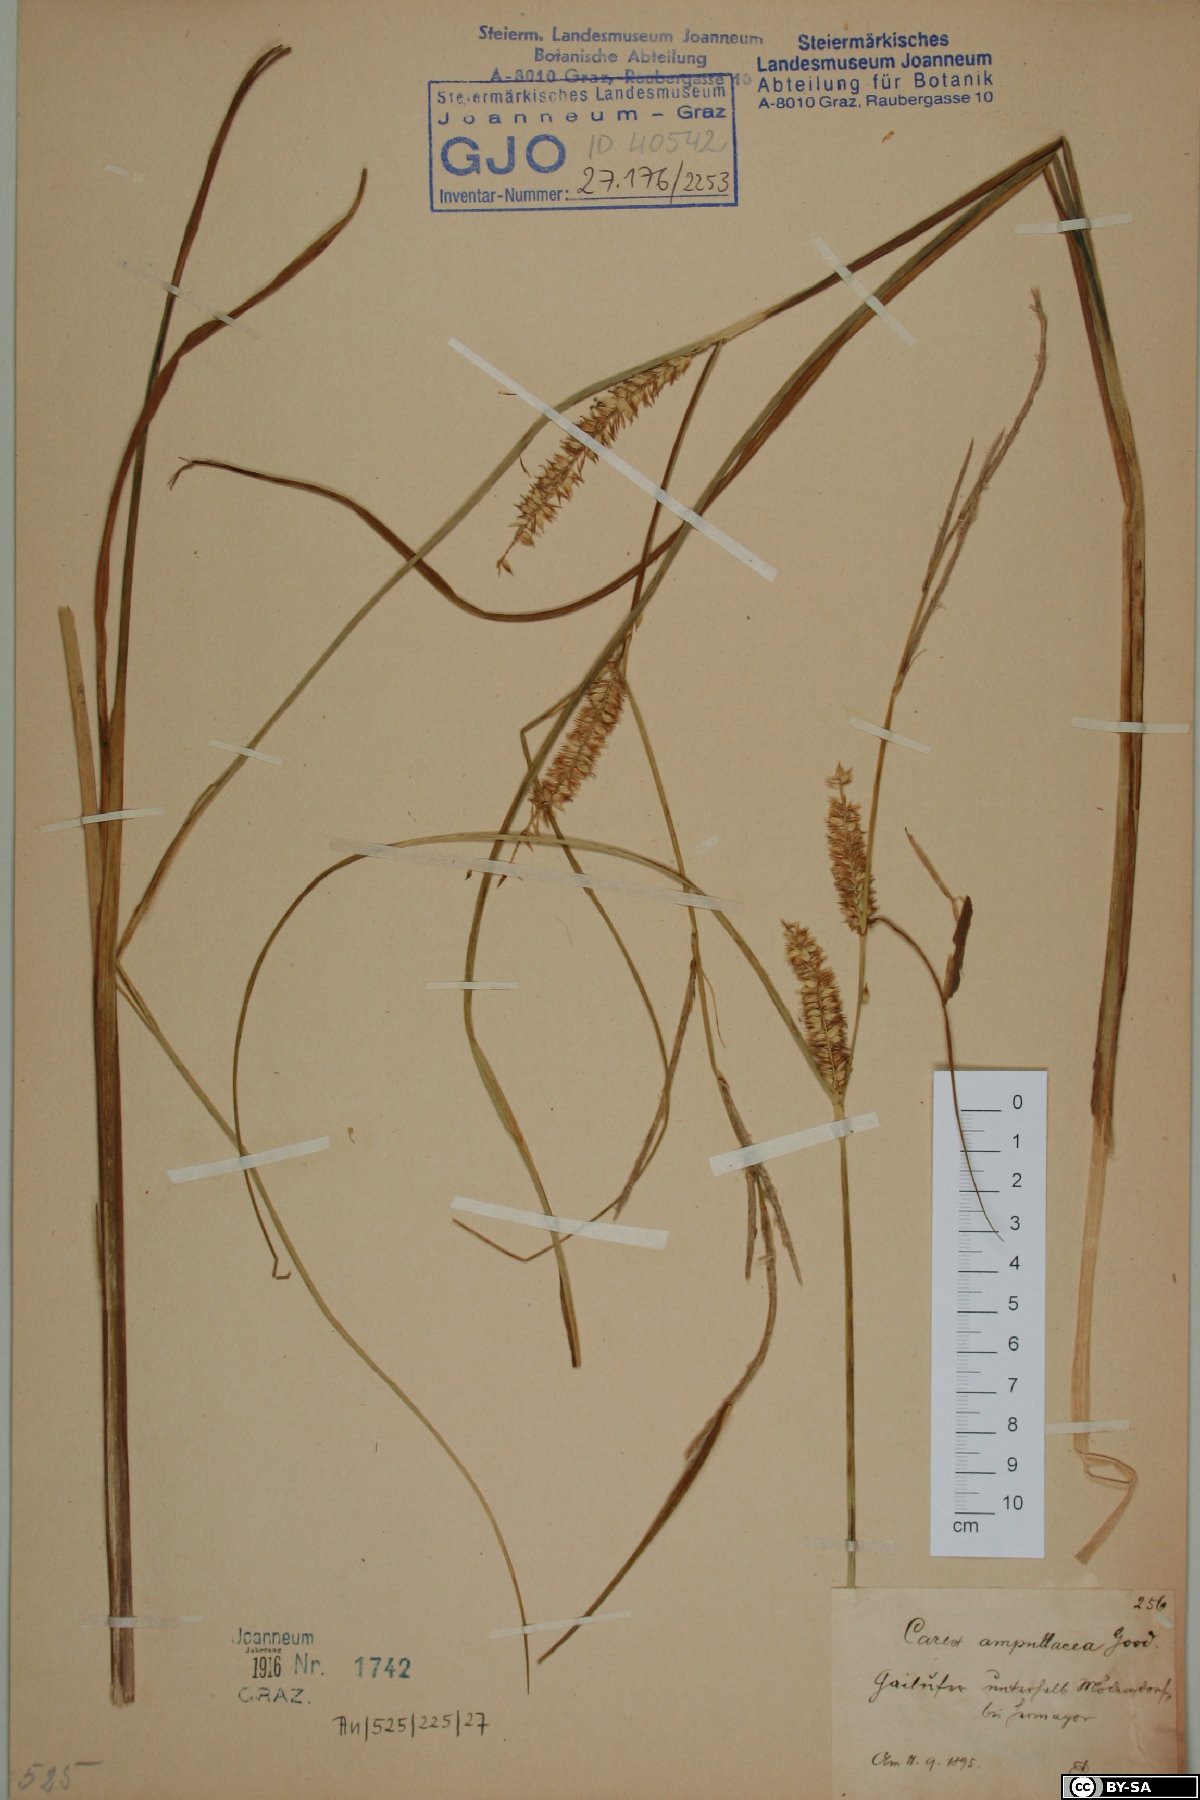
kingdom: Plantae
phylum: Tracheophyta
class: Liliopsida
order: Poales
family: Cyperaceae
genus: Carex
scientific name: Carex rostrata
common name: Bottle sedge
